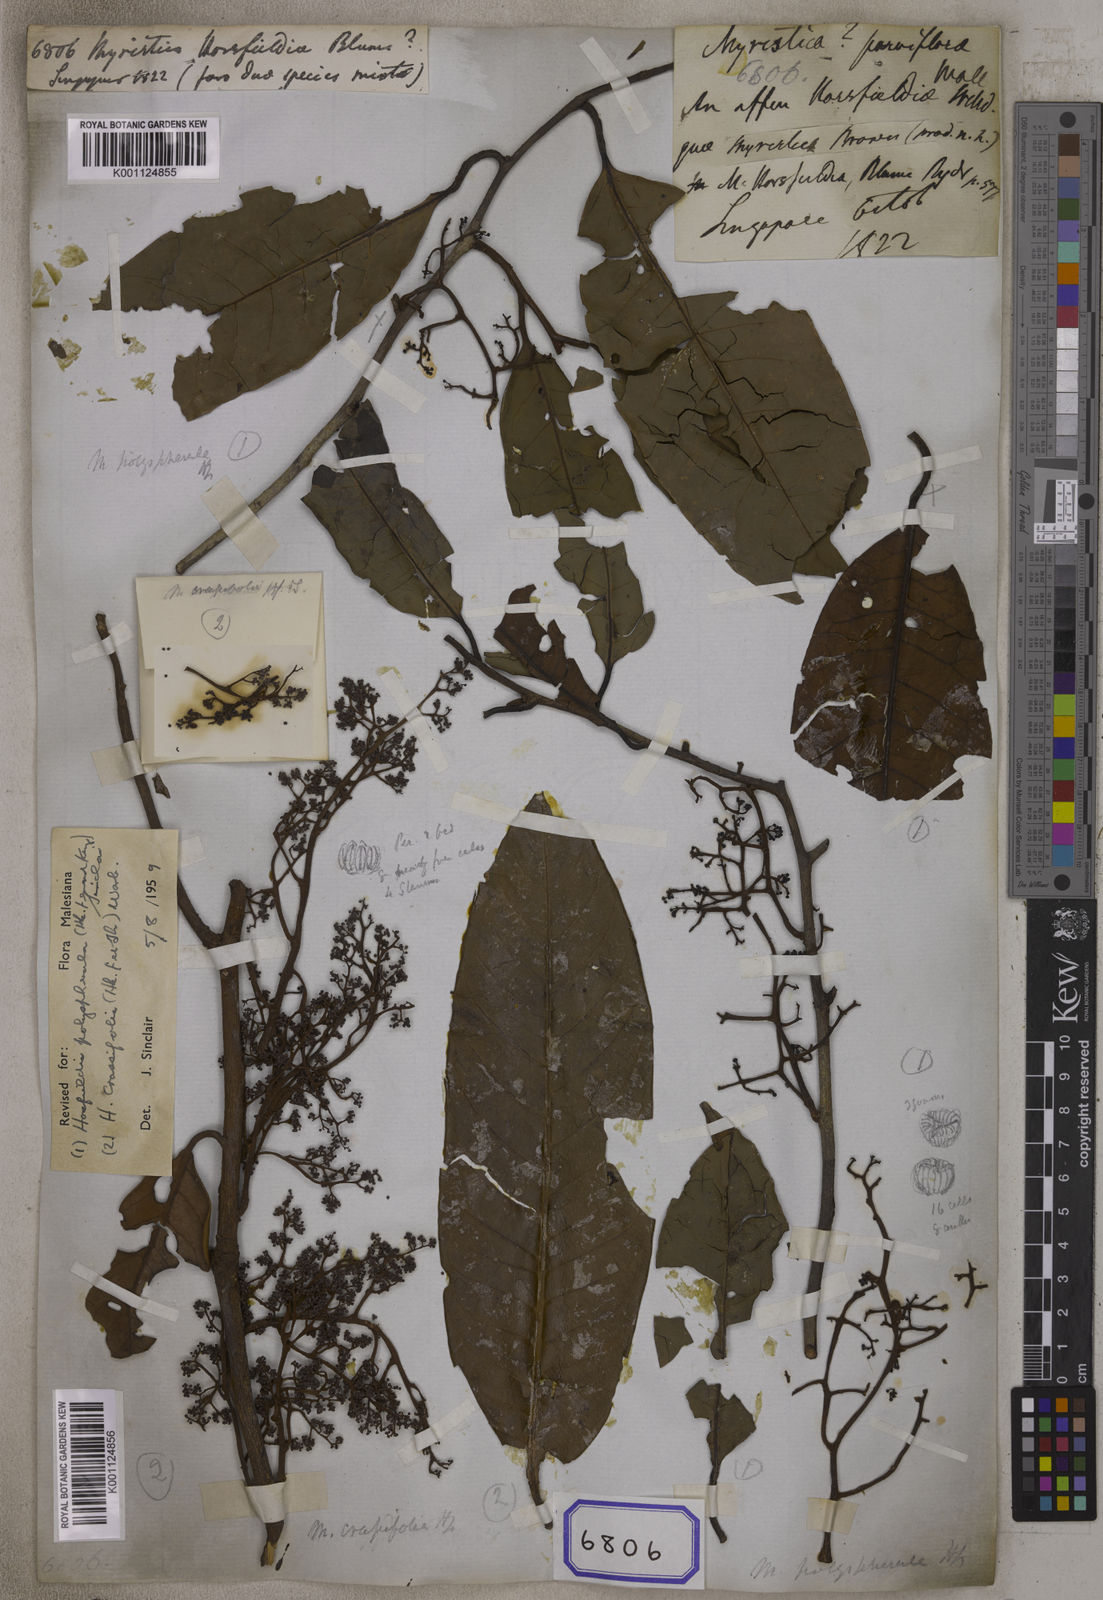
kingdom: Plantae
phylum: Tracheophyta
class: Magnoliopsida
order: Magnoliales
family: Myristicaceae
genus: Myristica
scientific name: Myristica
